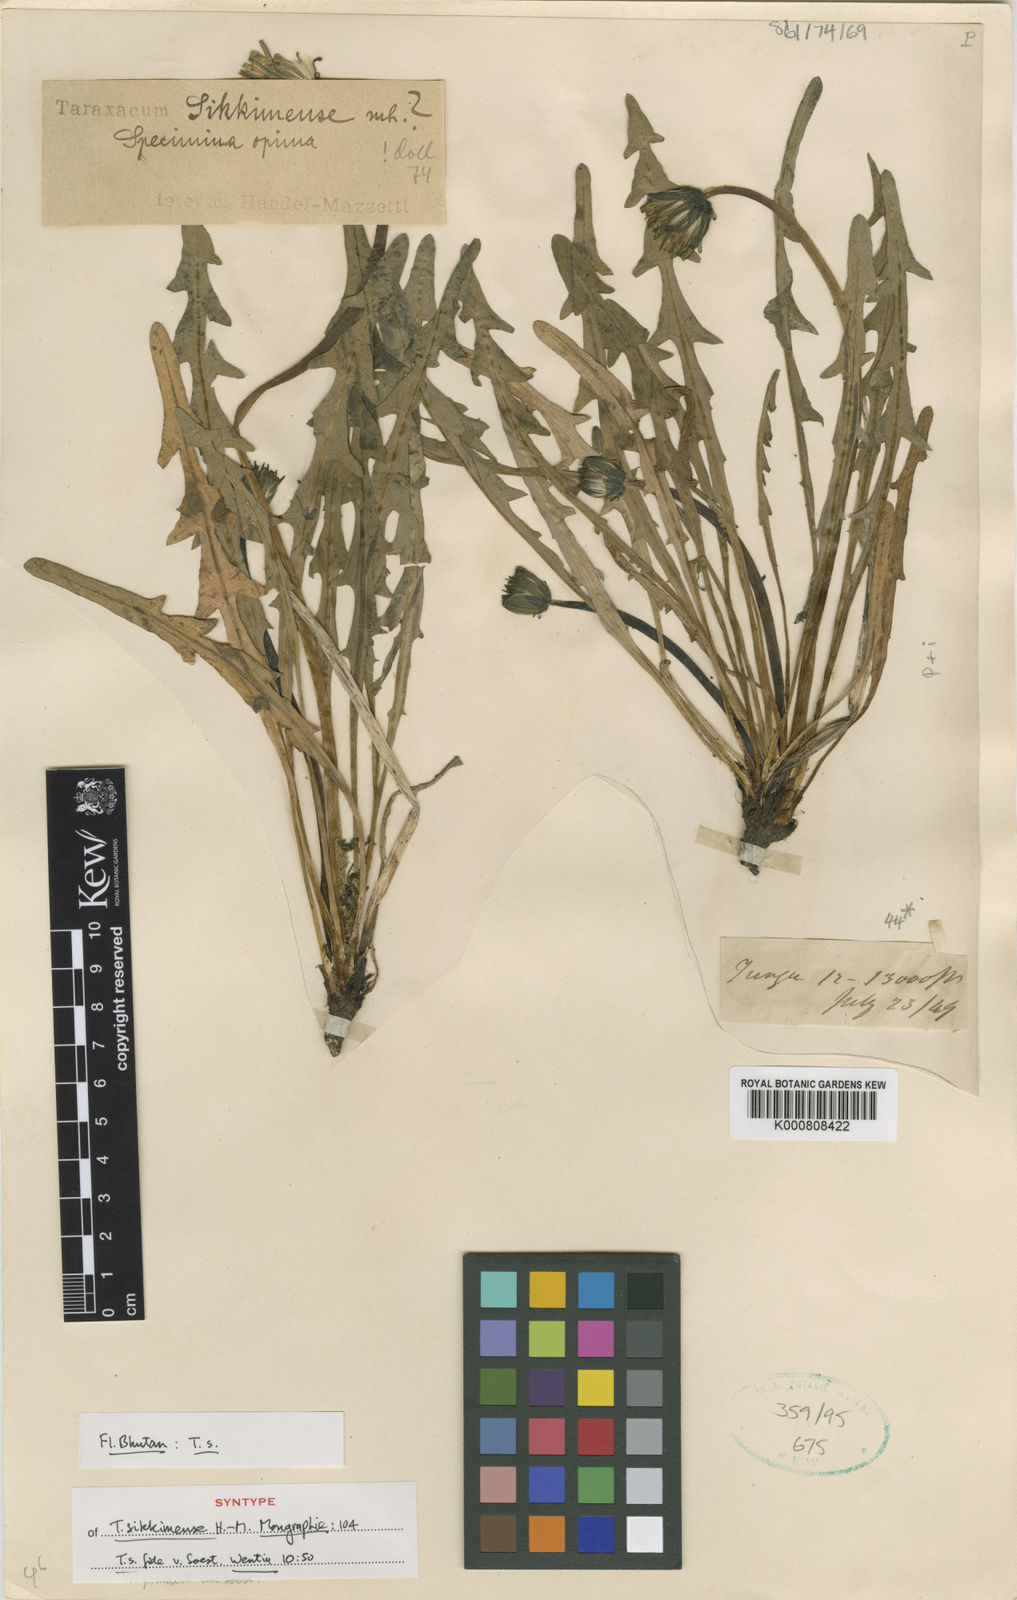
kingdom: Plantae
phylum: Tracheophyta
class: Magnoliopsida
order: Asterales
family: Asteraceae
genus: Taraxacum
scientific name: Taraxacum sikkimense
